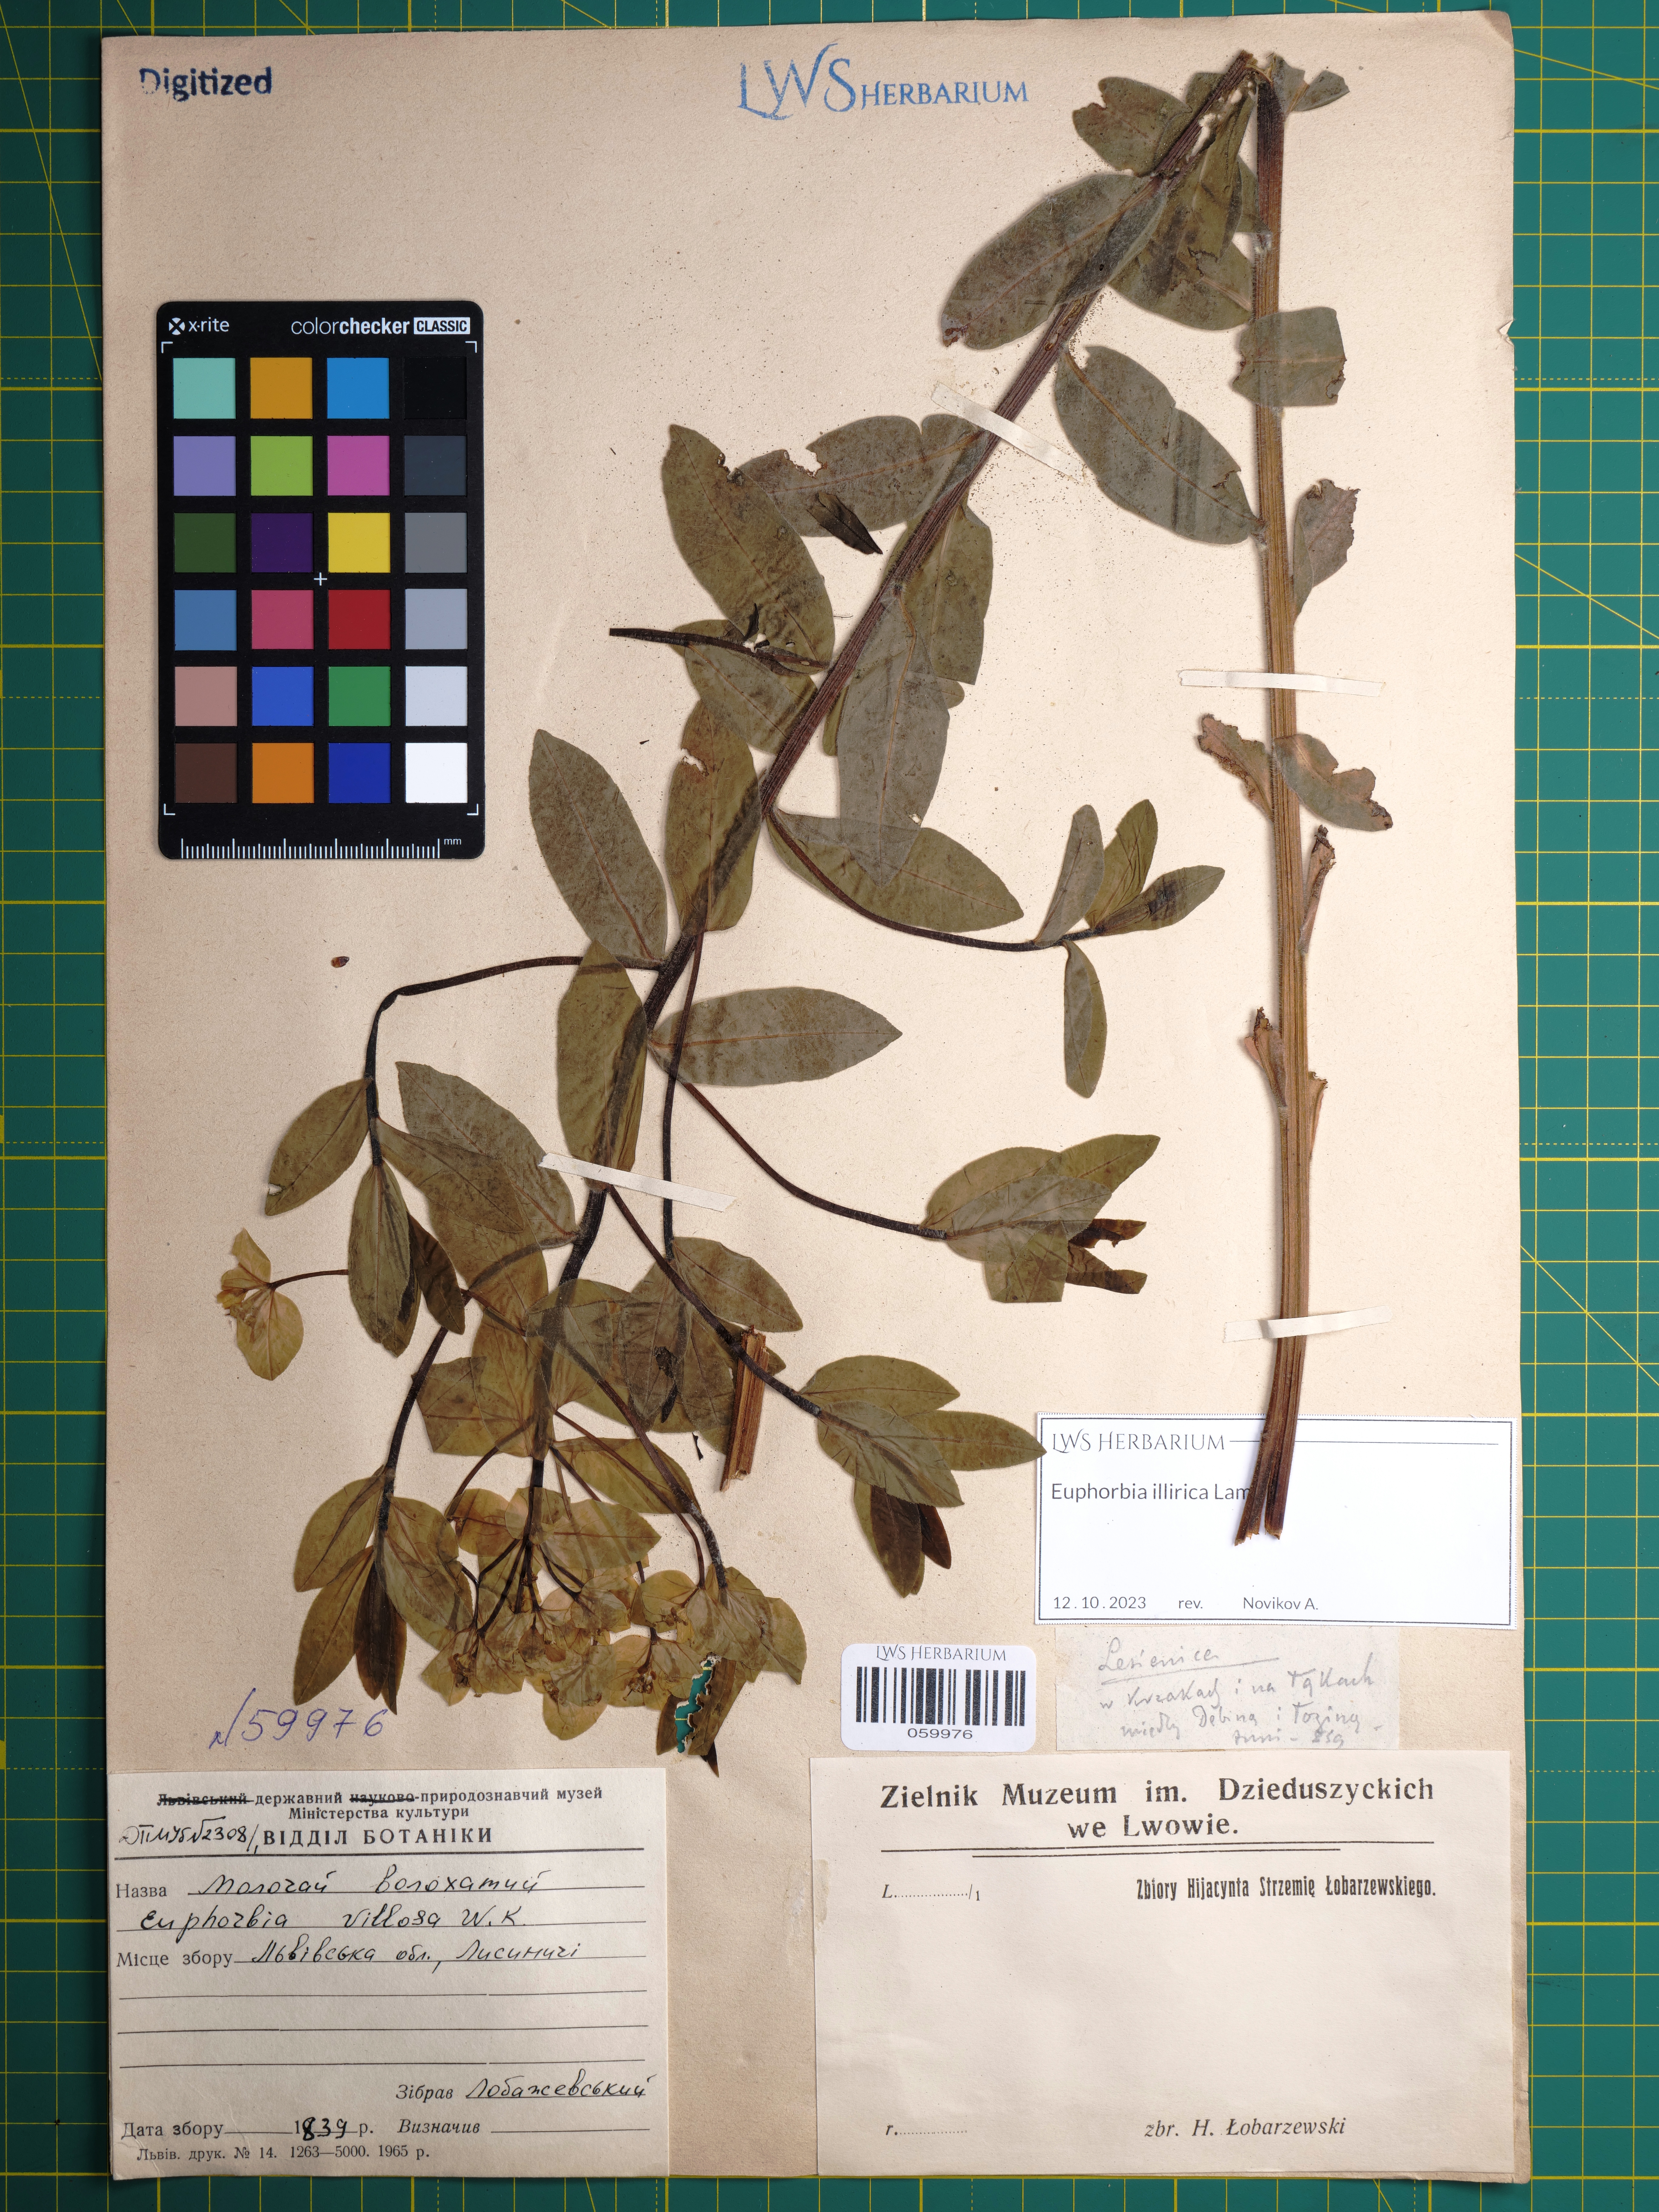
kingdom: Plantae
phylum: Tracheophyta
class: Magnoliopsida
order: Malpighiales
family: Euphorbiaceae
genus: Euphorbia
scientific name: Euphorbia illirica
